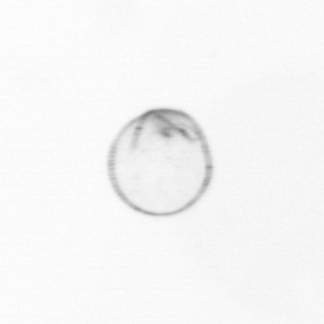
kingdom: Chromista
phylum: Myzozoa
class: Dinophyceae
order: Noctilucales
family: Noctilucaceae
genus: Noctiluca
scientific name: Noctiluca scintillans
